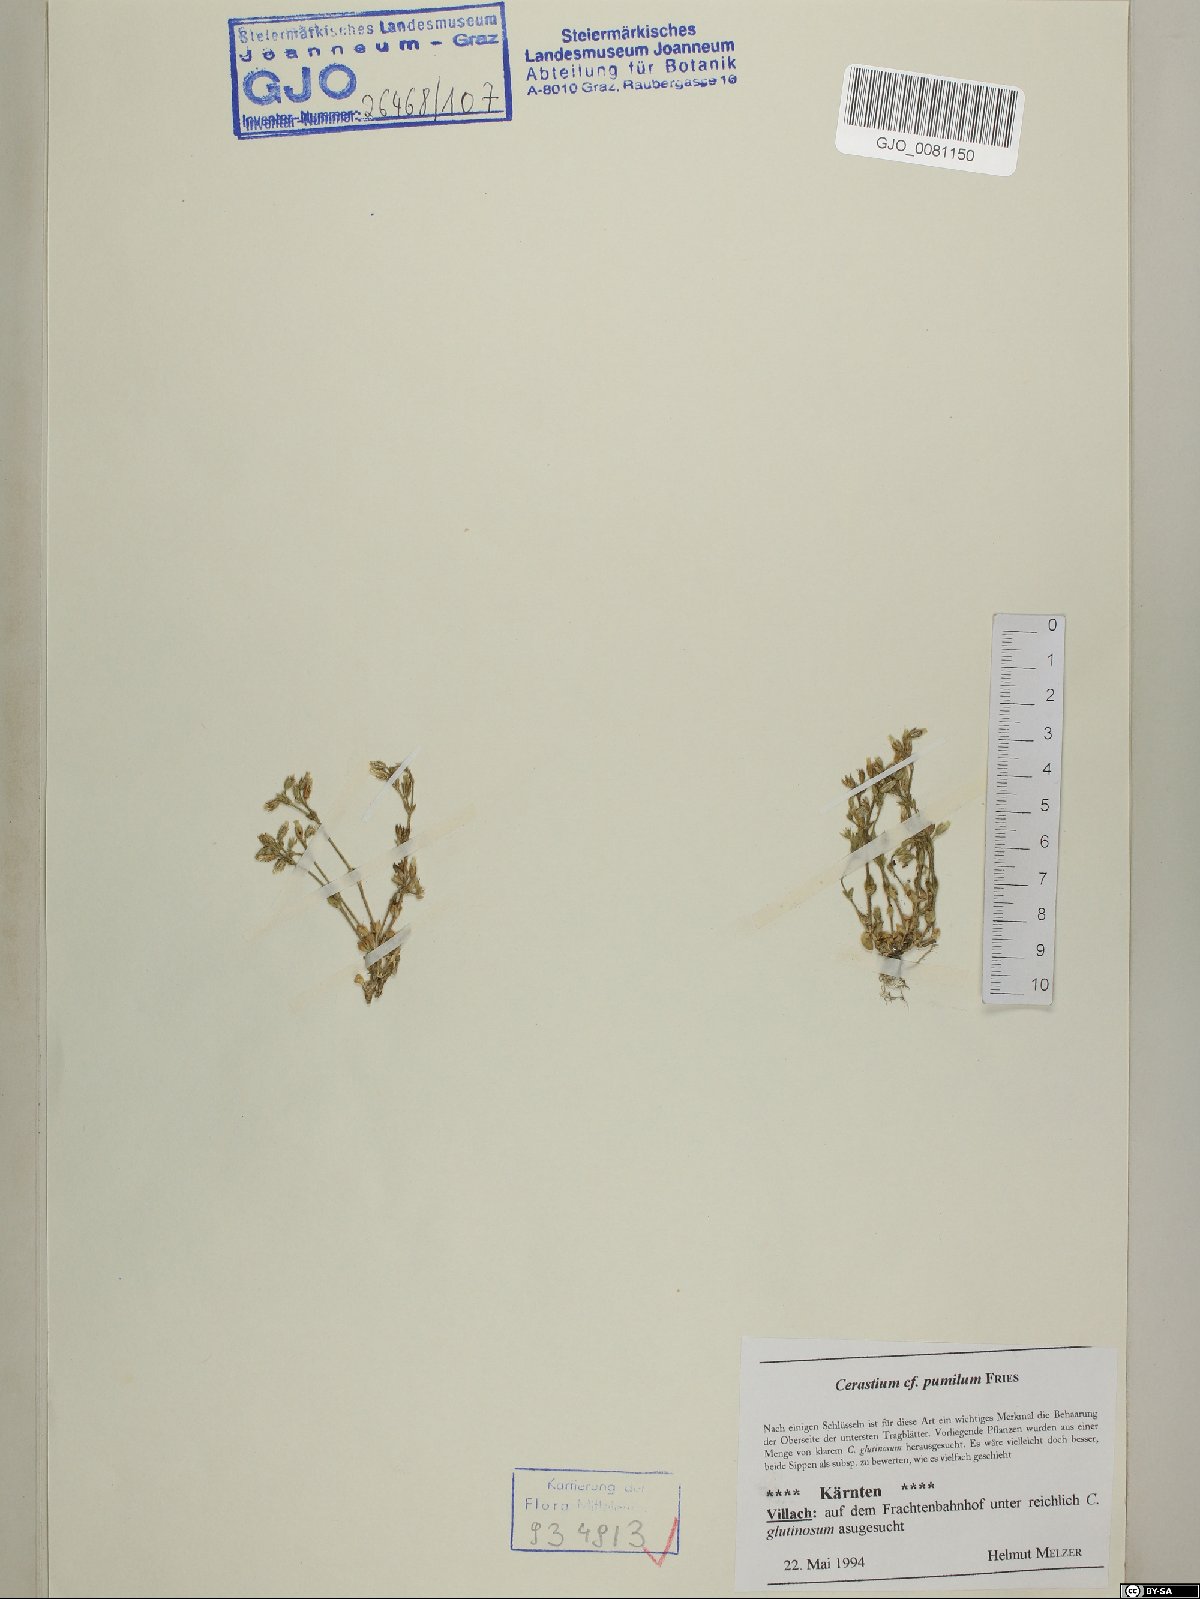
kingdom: Plantae
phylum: Tracheophyta
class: Magnoliopsida
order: Caryophyllales
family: Caryophyllaceae
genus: Cerastium
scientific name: Cerastium pumilum
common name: Dwarf mouse-ear
